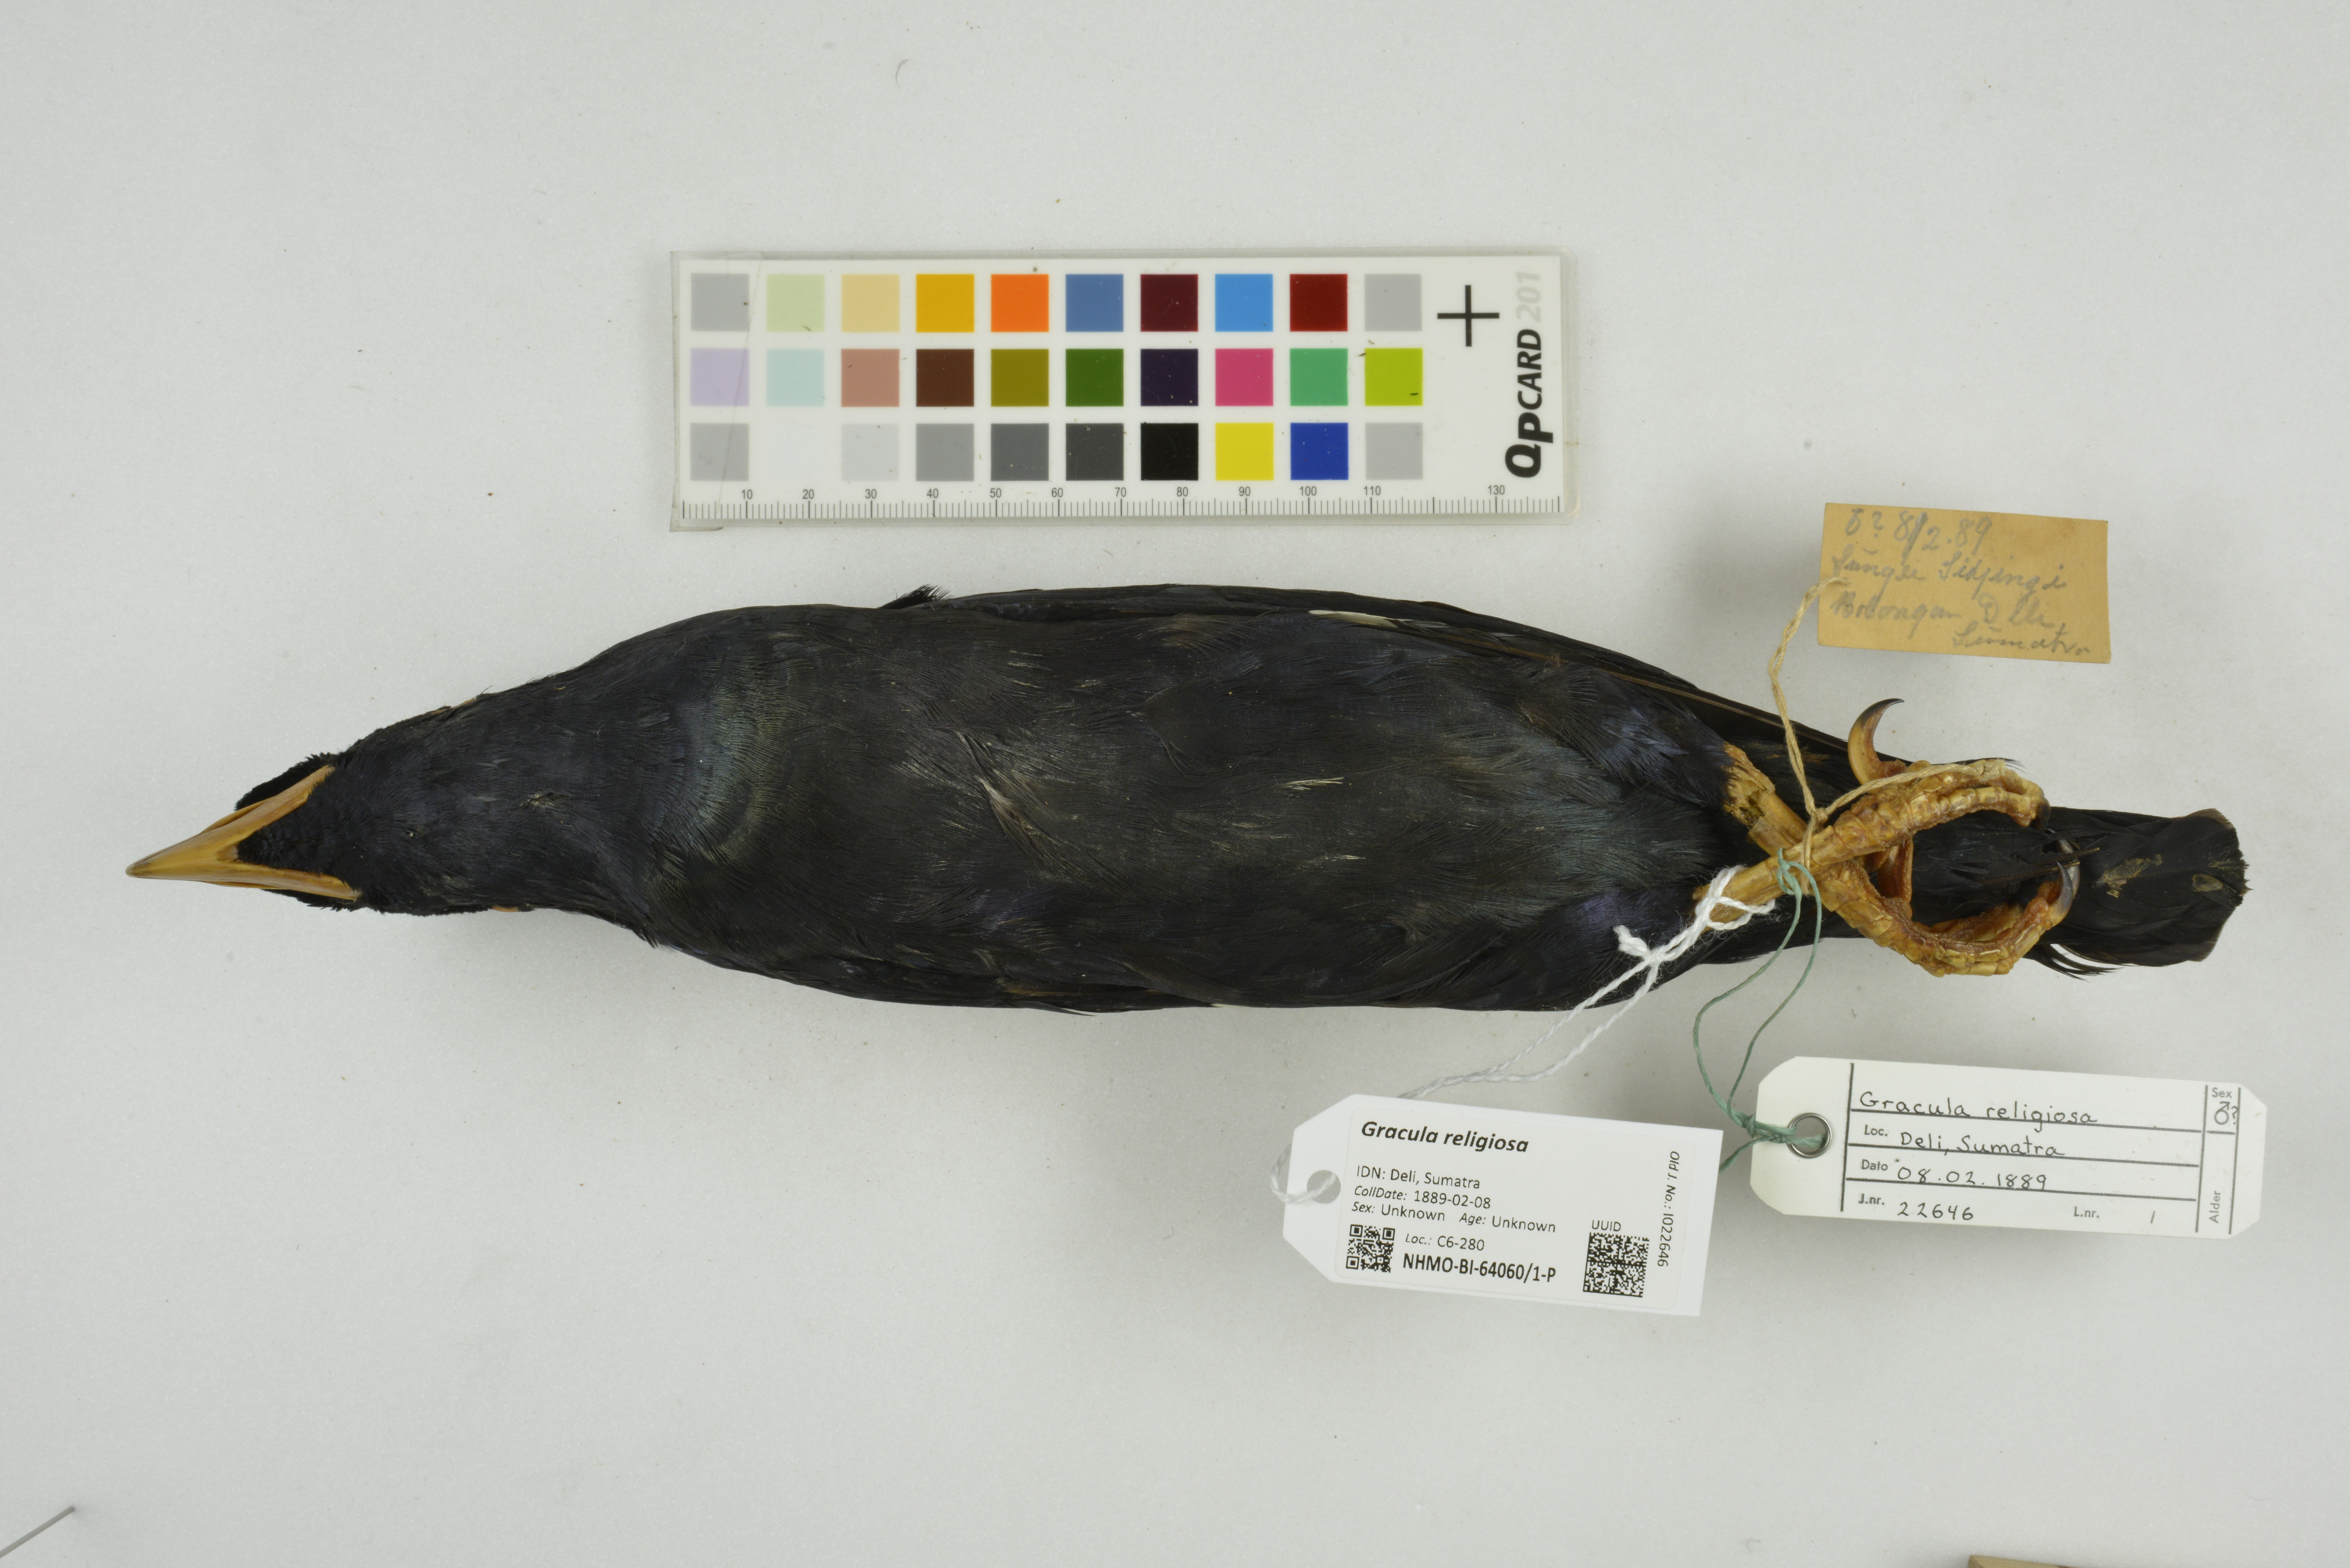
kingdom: Animalia
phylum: Chordata
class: Aves
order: Passeriformes
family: Sturnidae
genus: Gracula
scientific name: Gracula religiosa
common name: Common hill myna
